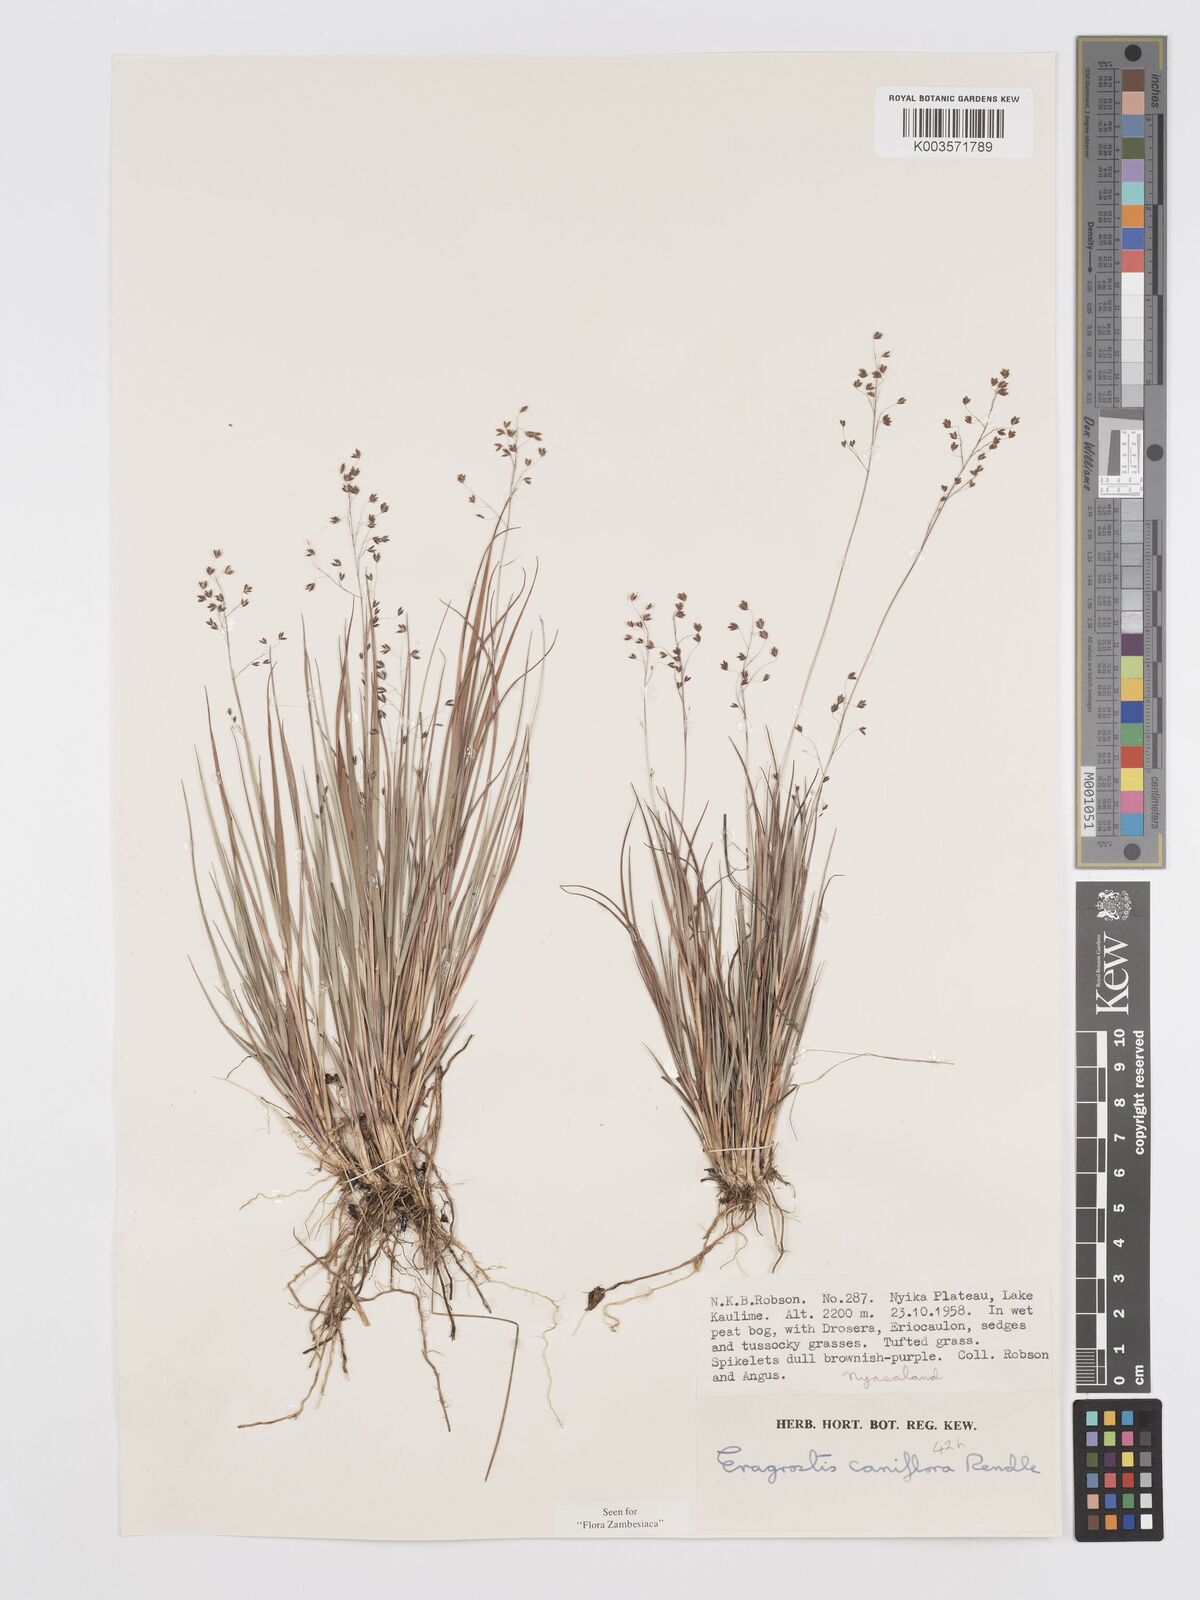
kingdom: Plantae
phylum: Tracheophyta
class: Liliopsida
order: Poales
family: Poaceae
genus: Eragrostis
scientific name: Eragrostis caniflora
